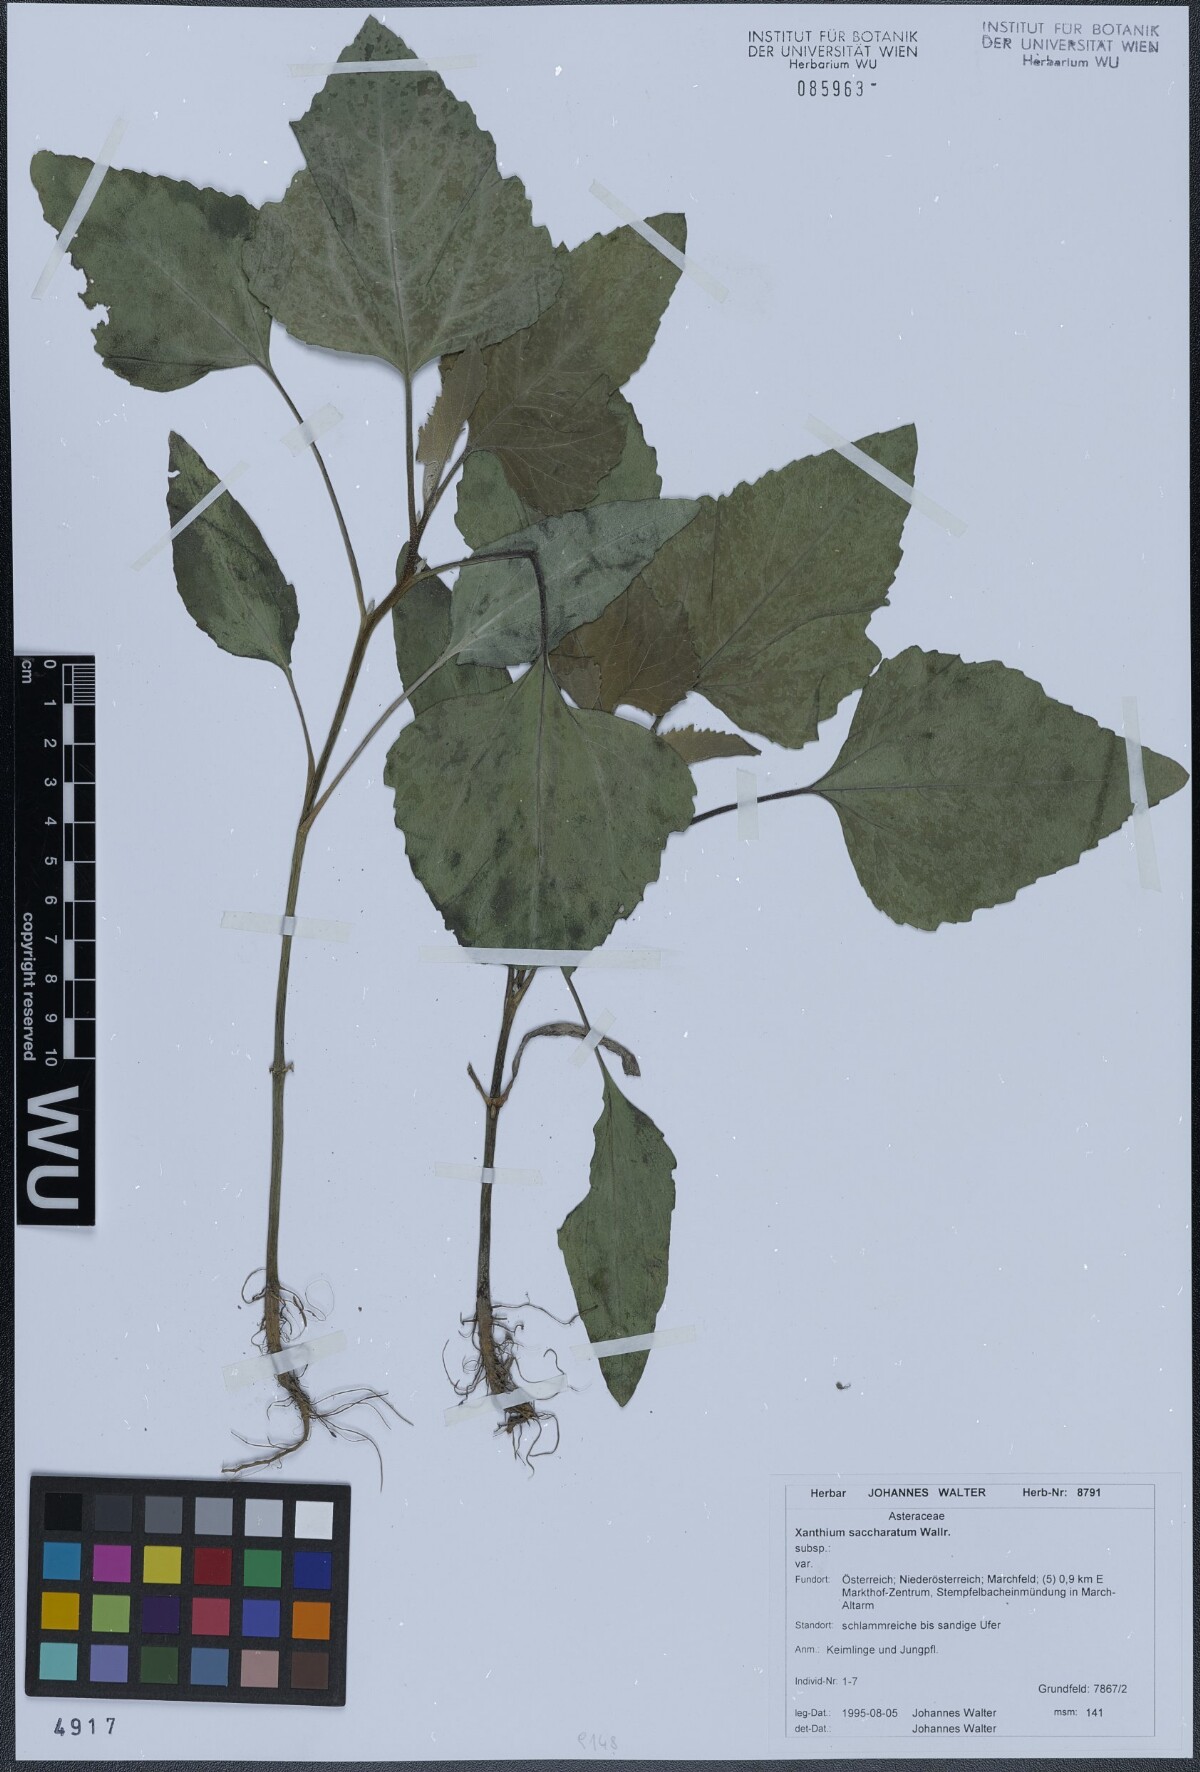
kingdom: Plantae
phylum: Tracheophyta
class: Magnoliopsida
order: Asterales
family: Asteraceae
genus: Xanthium
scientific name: Xanthium orientale
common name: Californian burr
